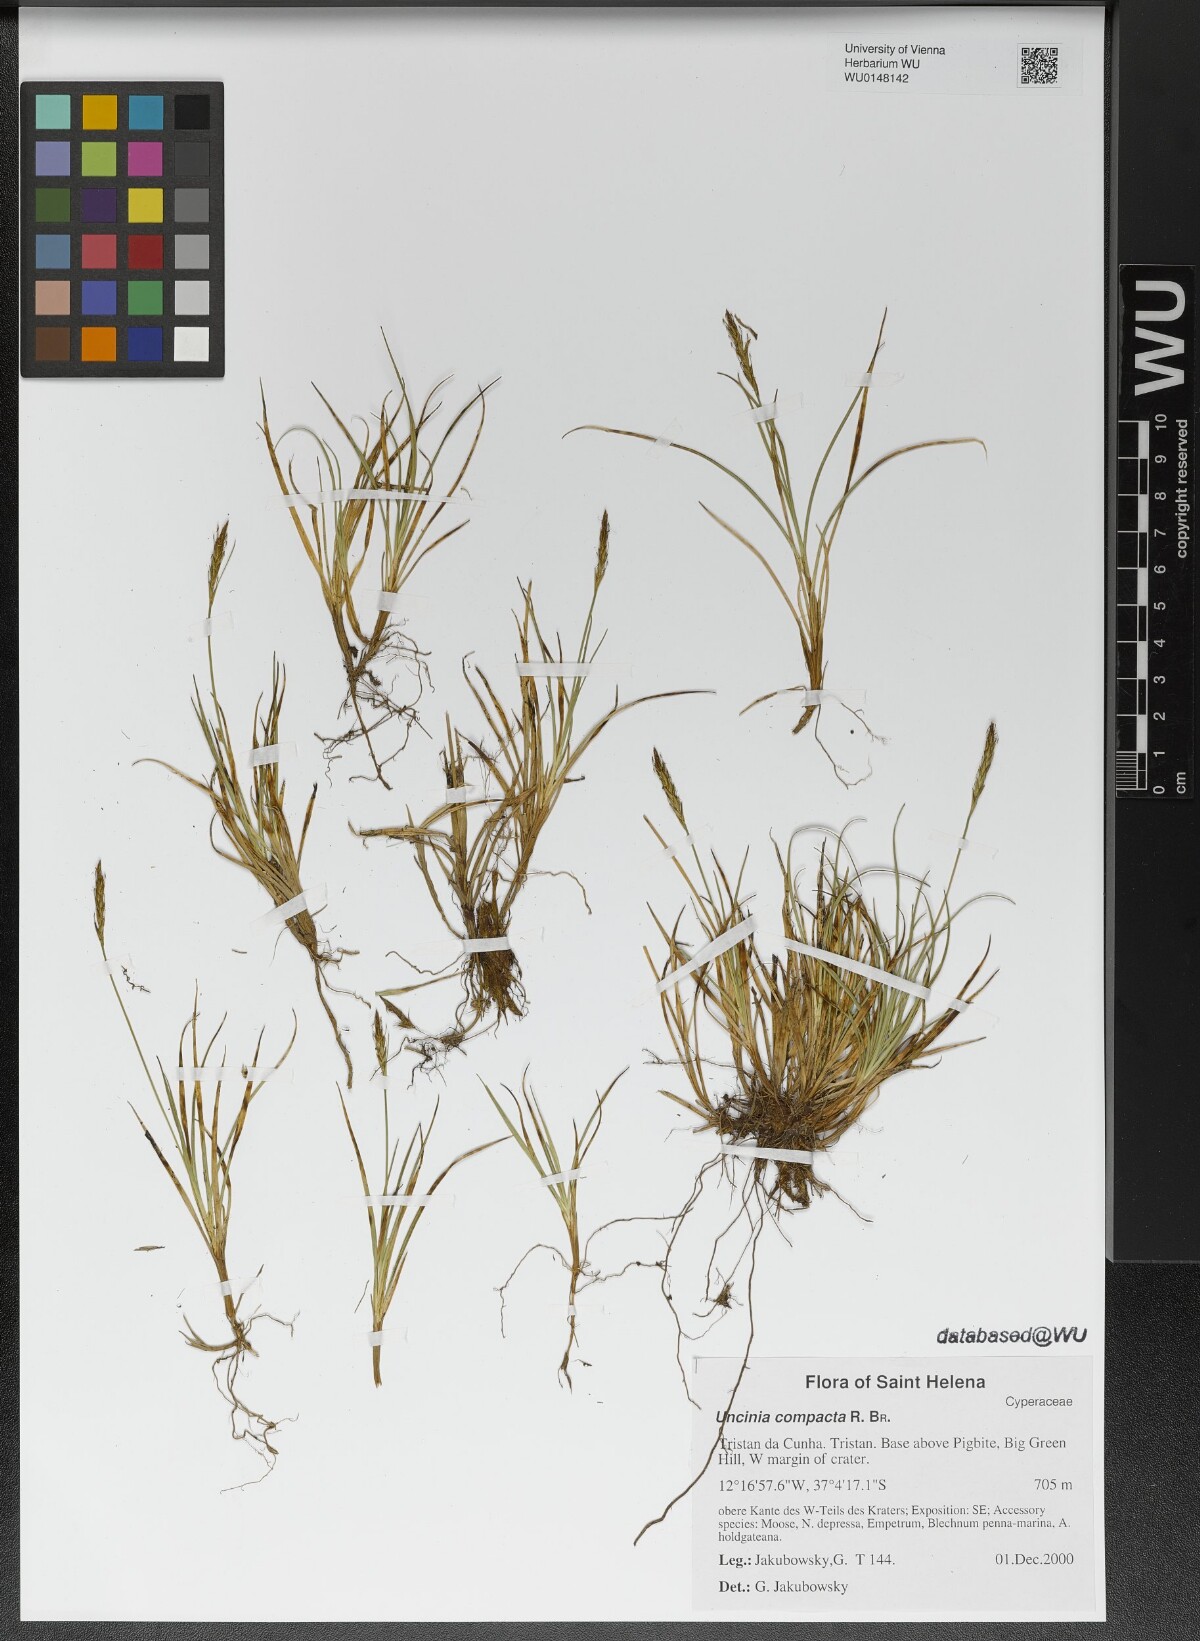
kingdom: Plantae
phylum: Tracheophyta
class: Liliopsida
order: Poales
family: Cyperaceae
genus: Carex
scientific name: Carex austrocompacta
